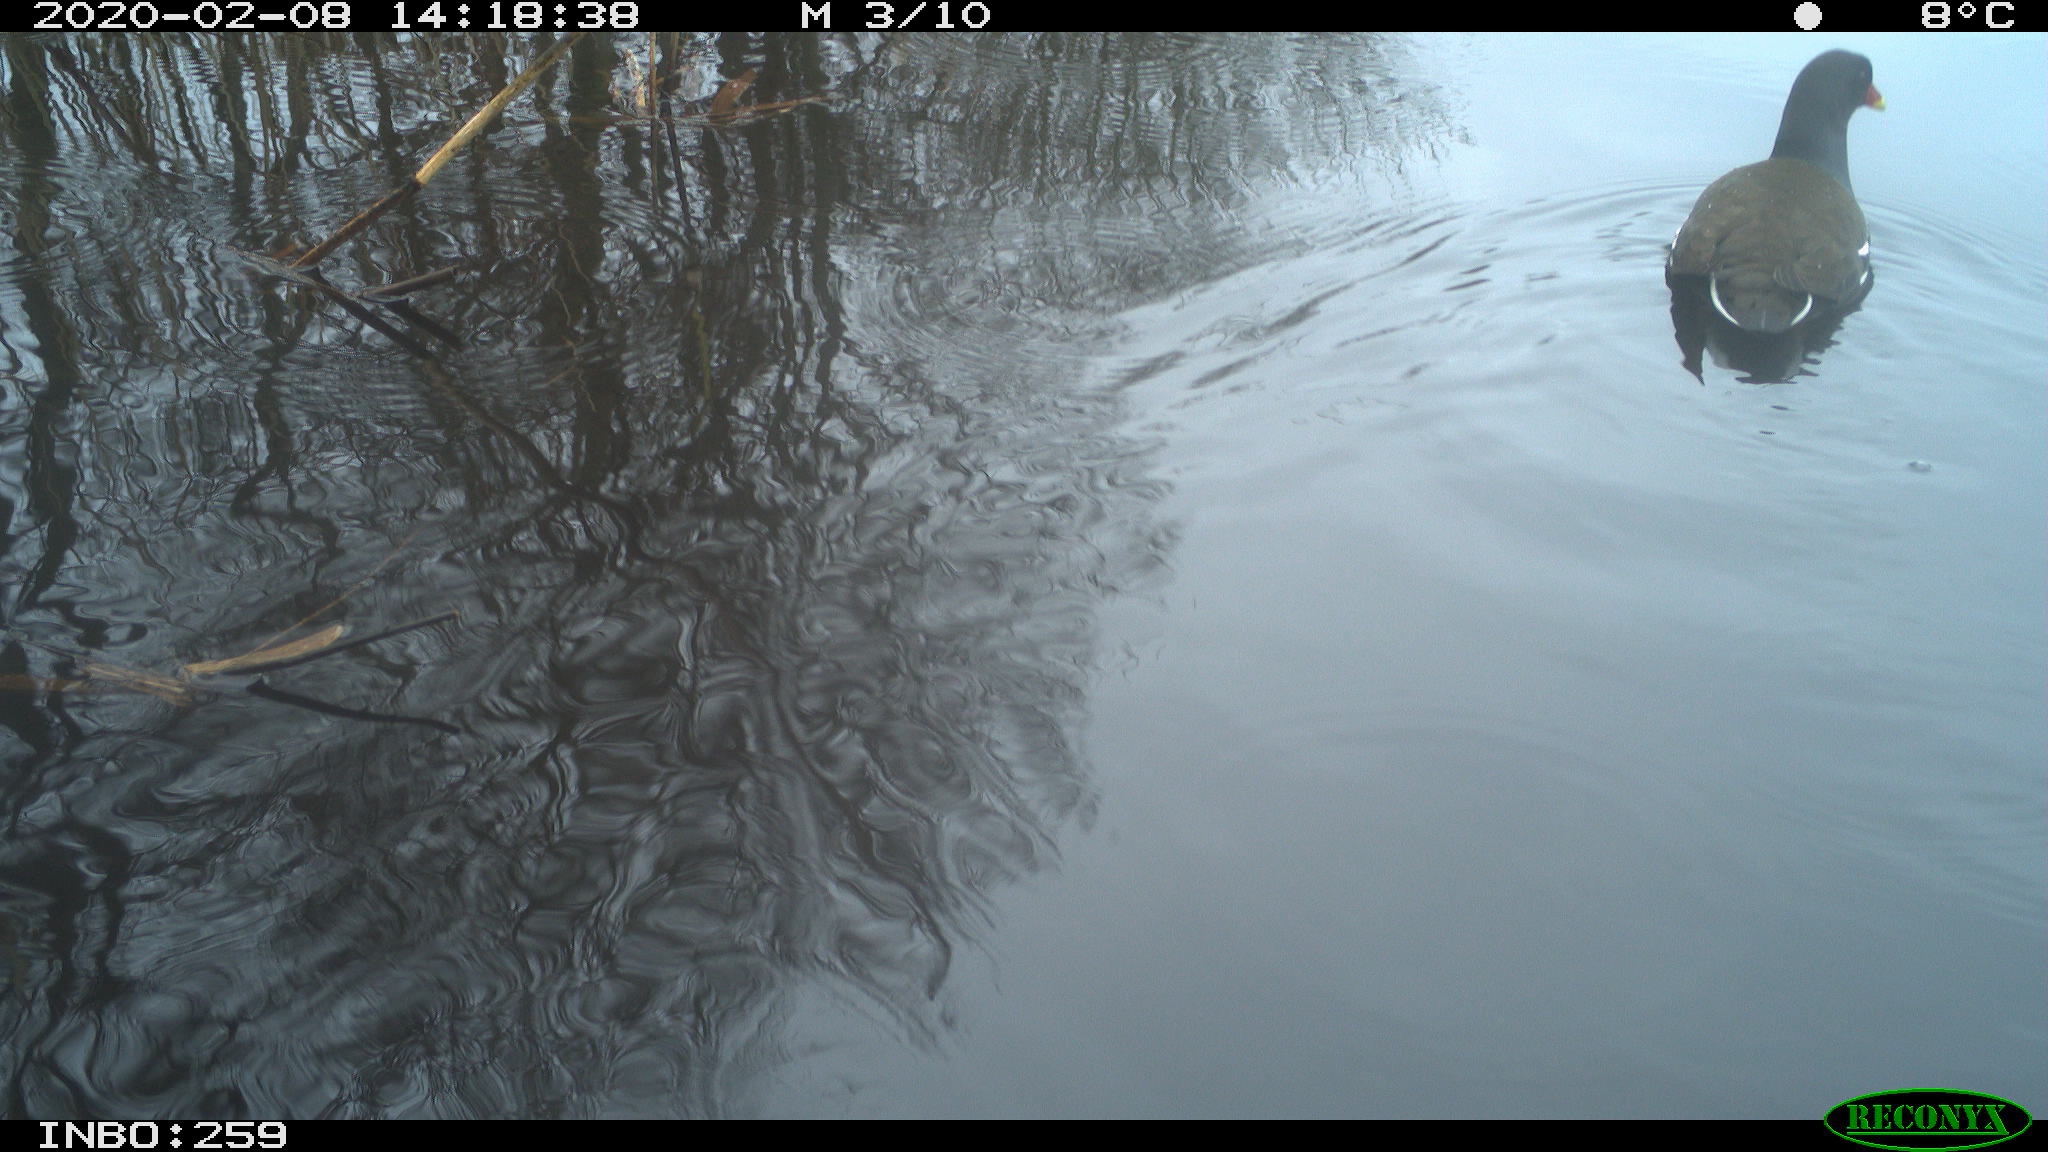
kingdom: Animalia
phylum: Chordata
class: Aves
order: Gruiformes
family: Rallidae
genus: Gallinula
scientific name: Gallinula chloropus
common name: Common moorhen
